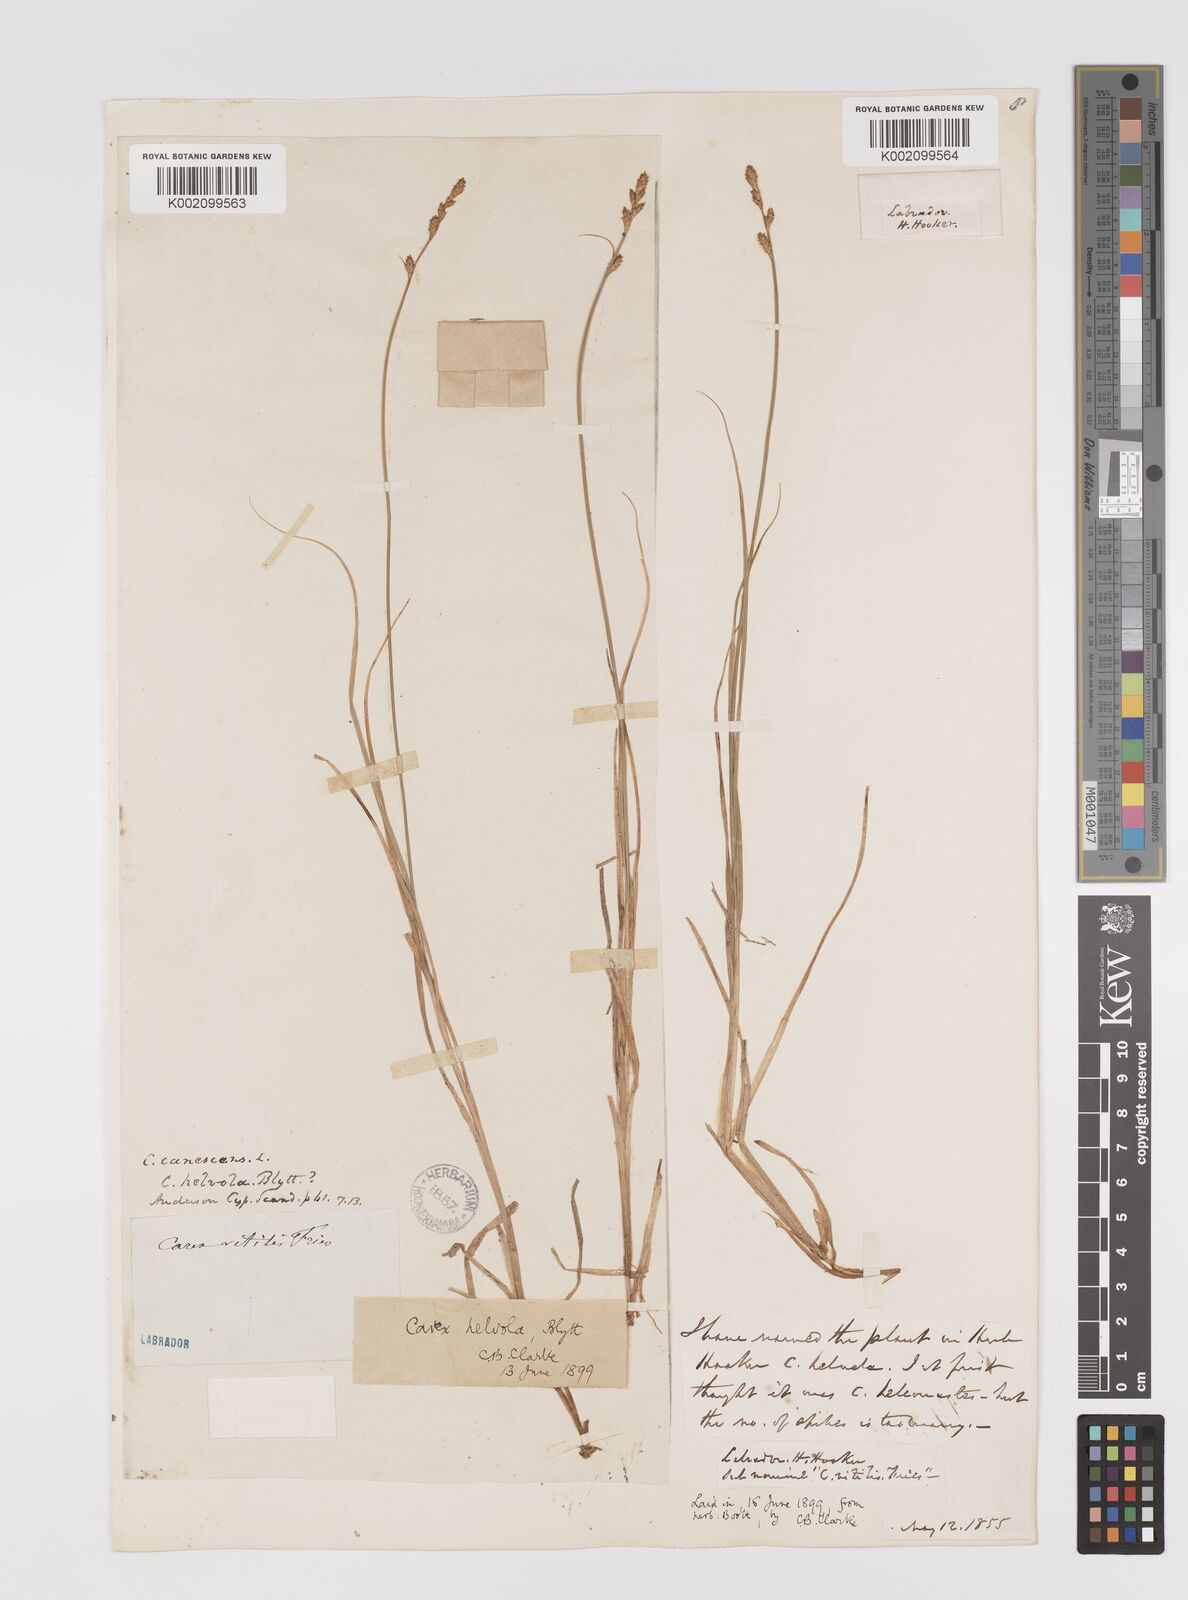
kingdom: Plantae
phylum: Tracheophyta
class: Liliopsida
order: Poales
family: Cyperaceae
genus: Carex
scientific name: Carex helvola
